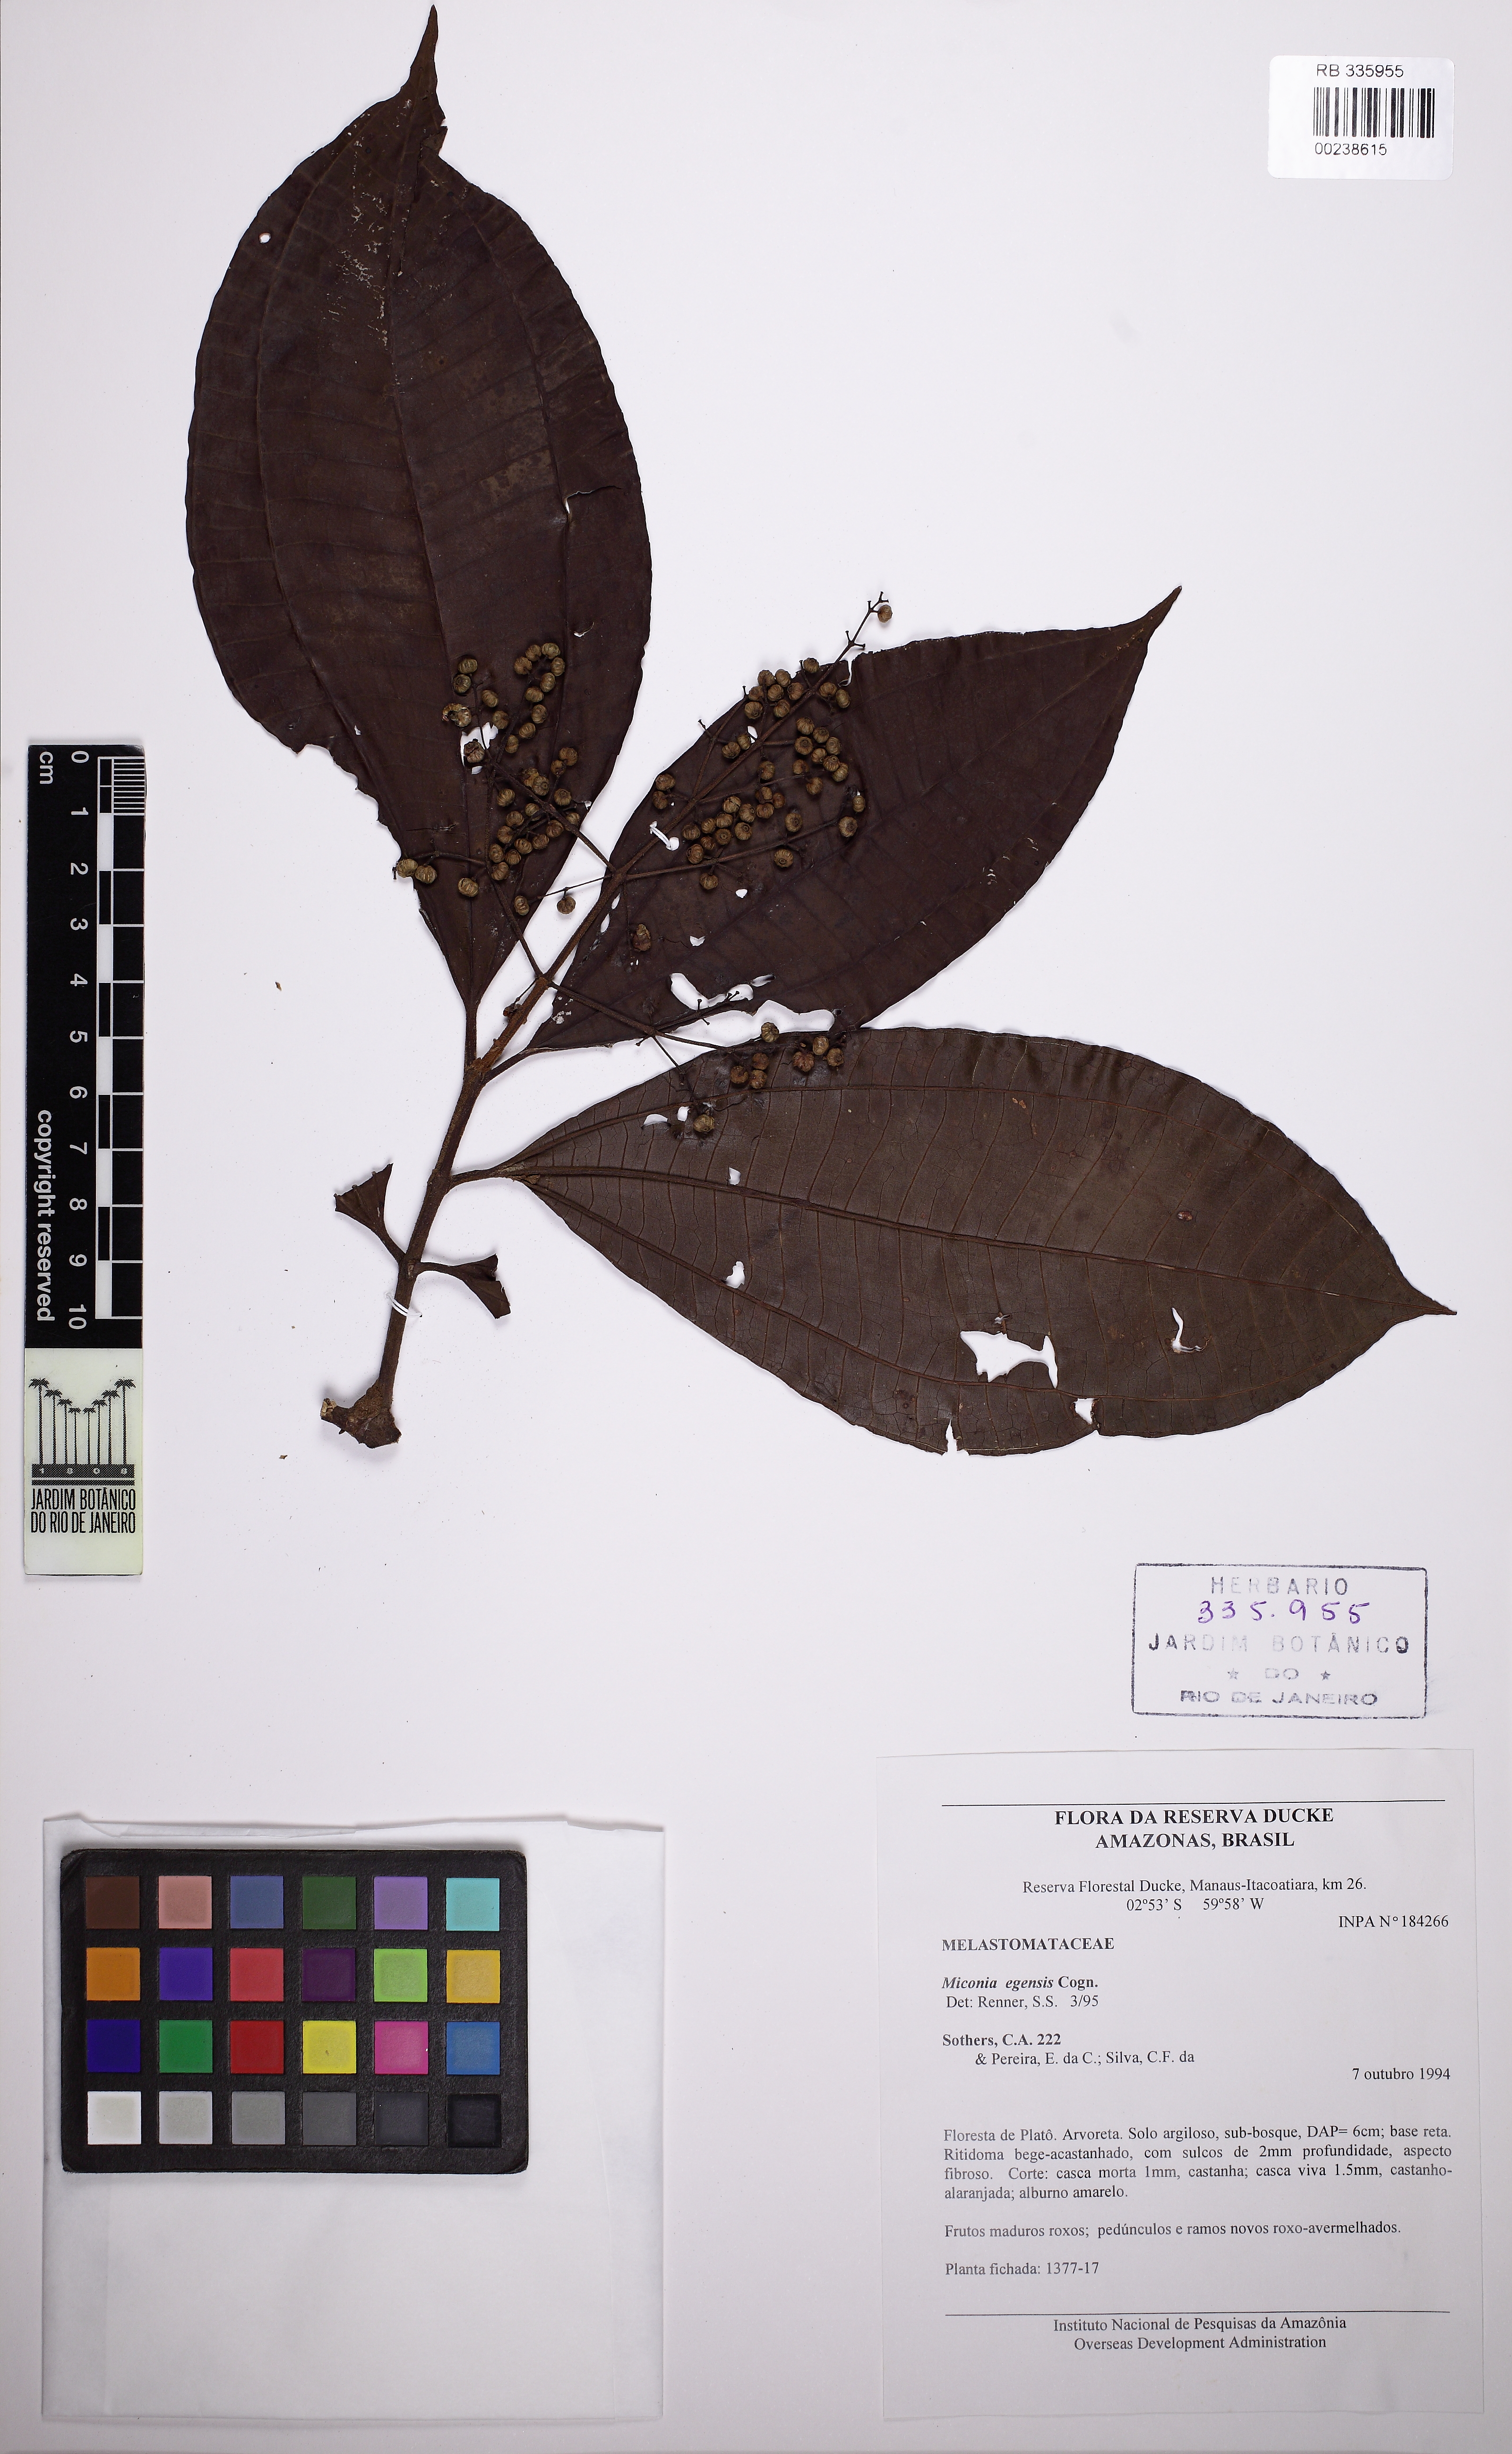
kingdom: Plantae
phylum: Tracheophyta
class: Magnoliopsida
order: Myrtales
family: Melastomataceae
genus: Miconia
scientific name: Miconia egensis
